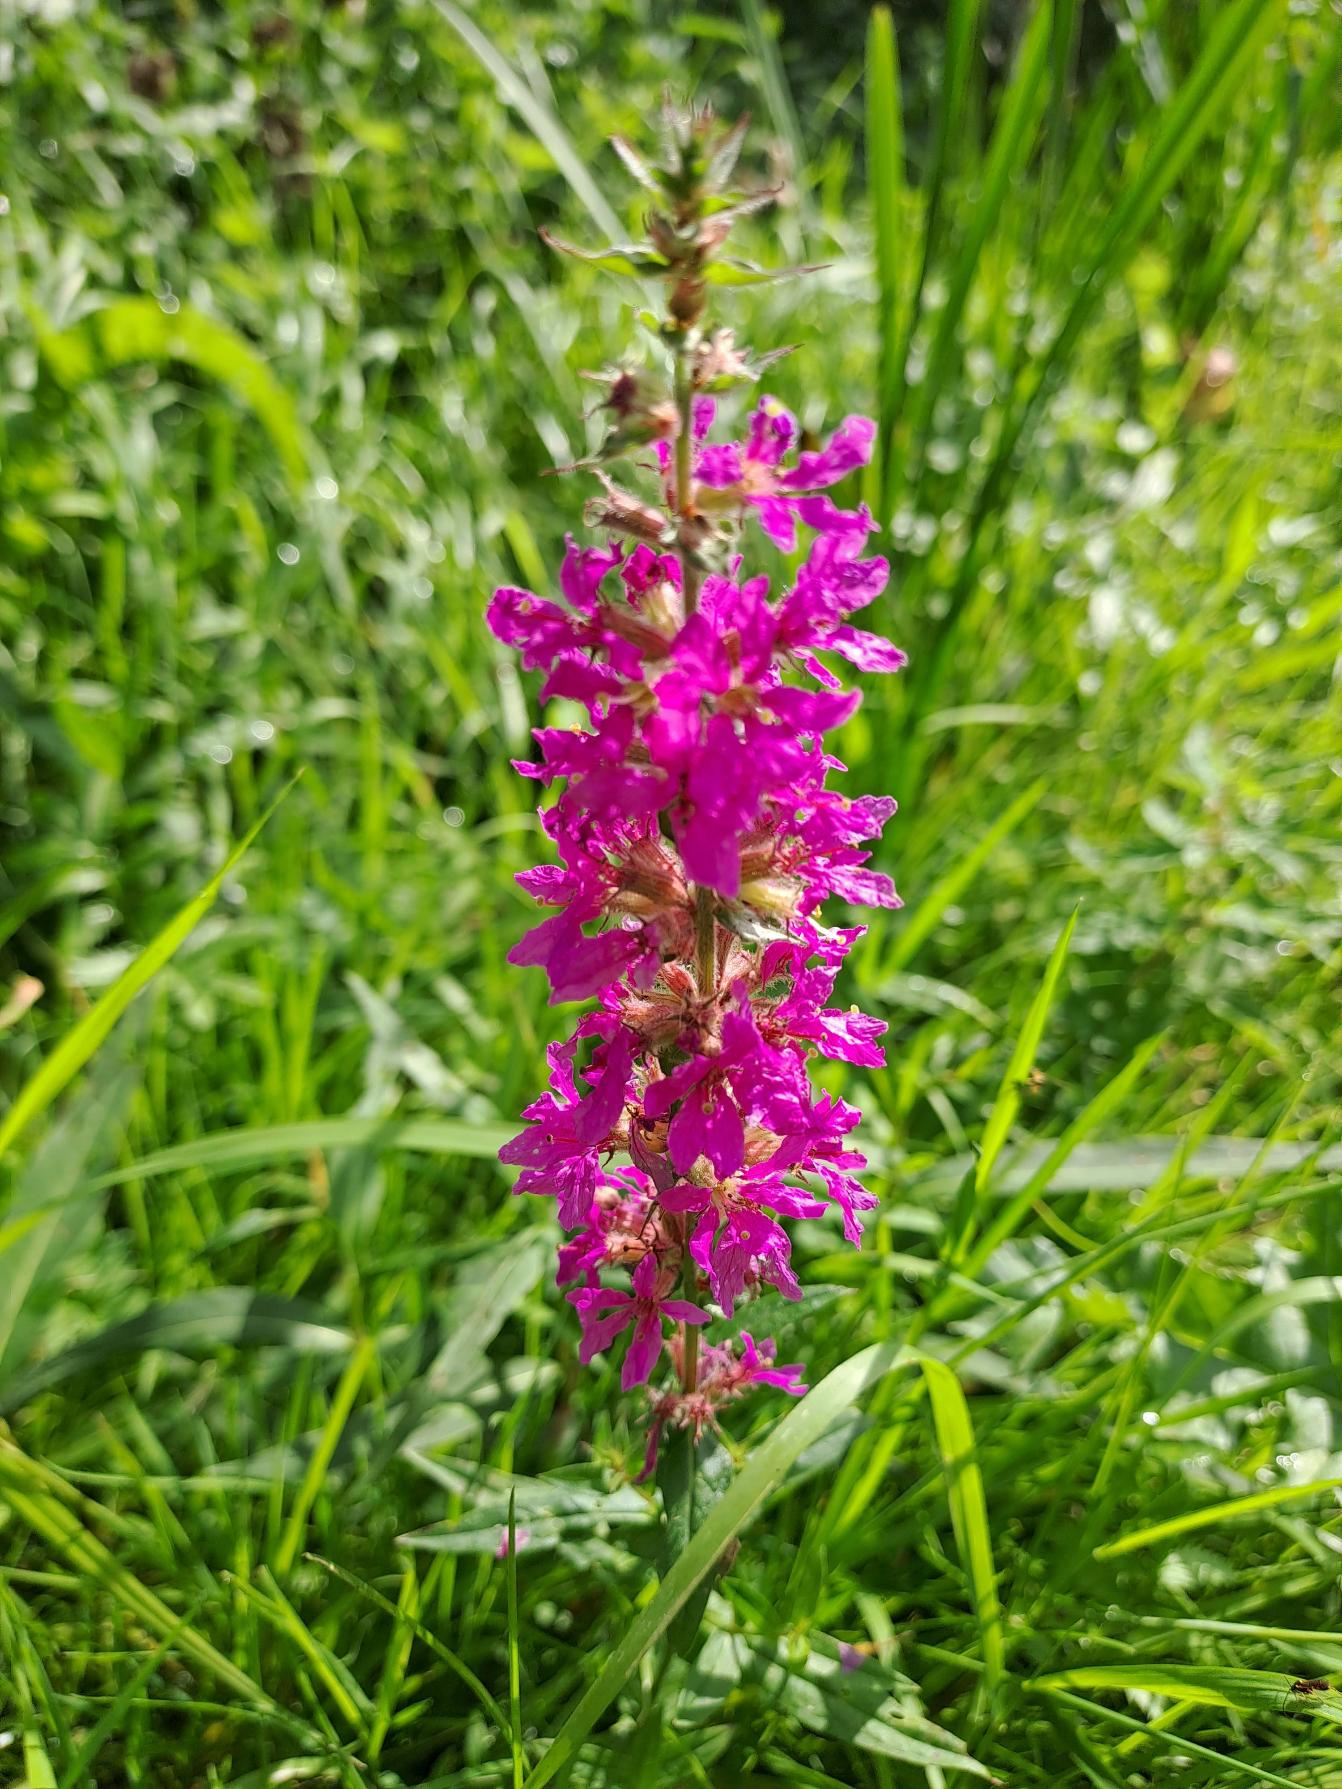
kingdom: Plantae
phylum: Tracheophyta
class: Magnoliopsida
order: Myrtales
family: Lythraceae
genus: Lythrum
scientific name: Lythrum salicaria
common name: Kattehale
